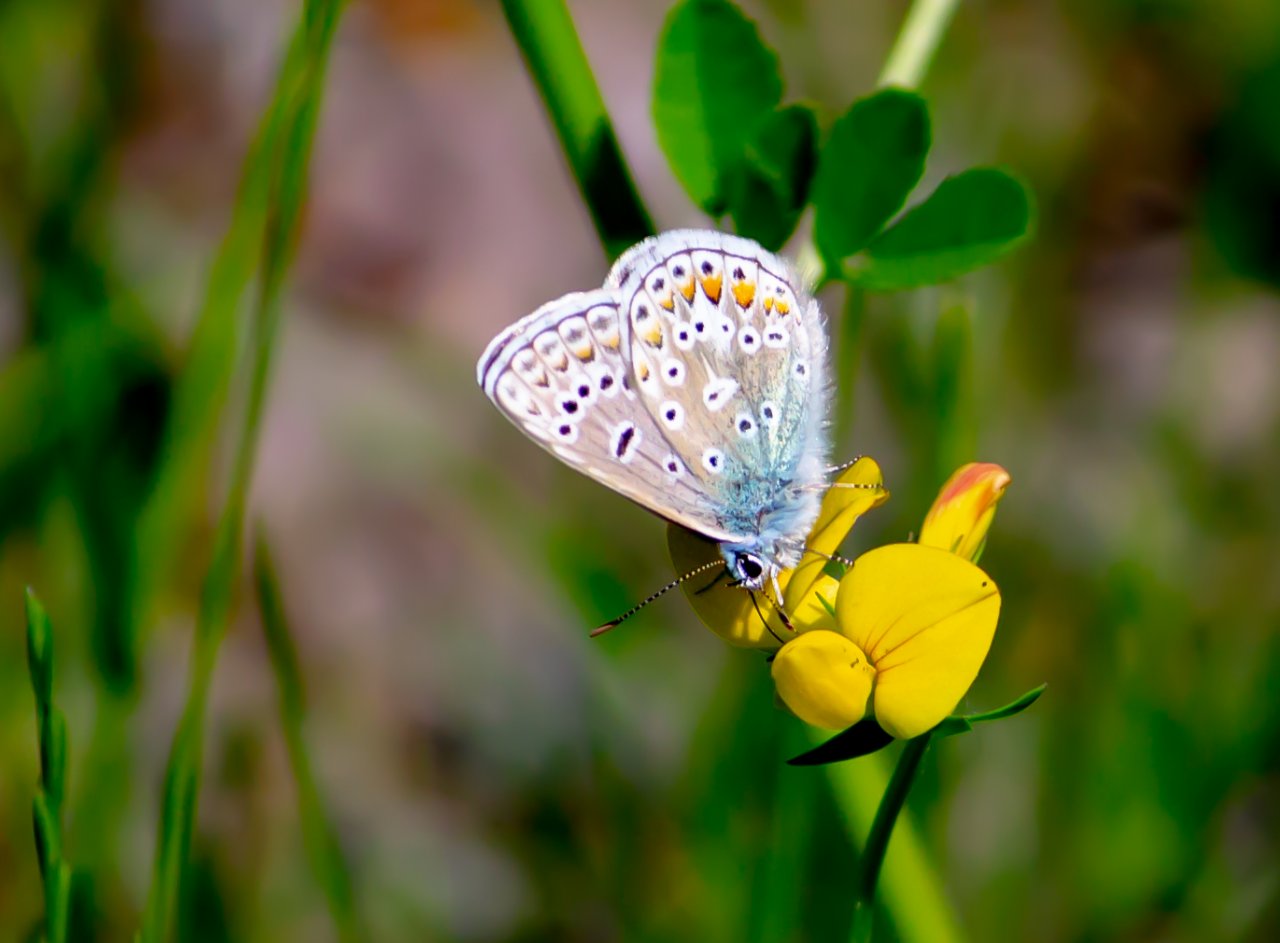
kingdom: Animalia
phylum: Arthropoda
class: Insecta
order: Lepidoptera
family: Lycaenidae
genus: Polyommatus
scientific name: Polyommatus icarus
